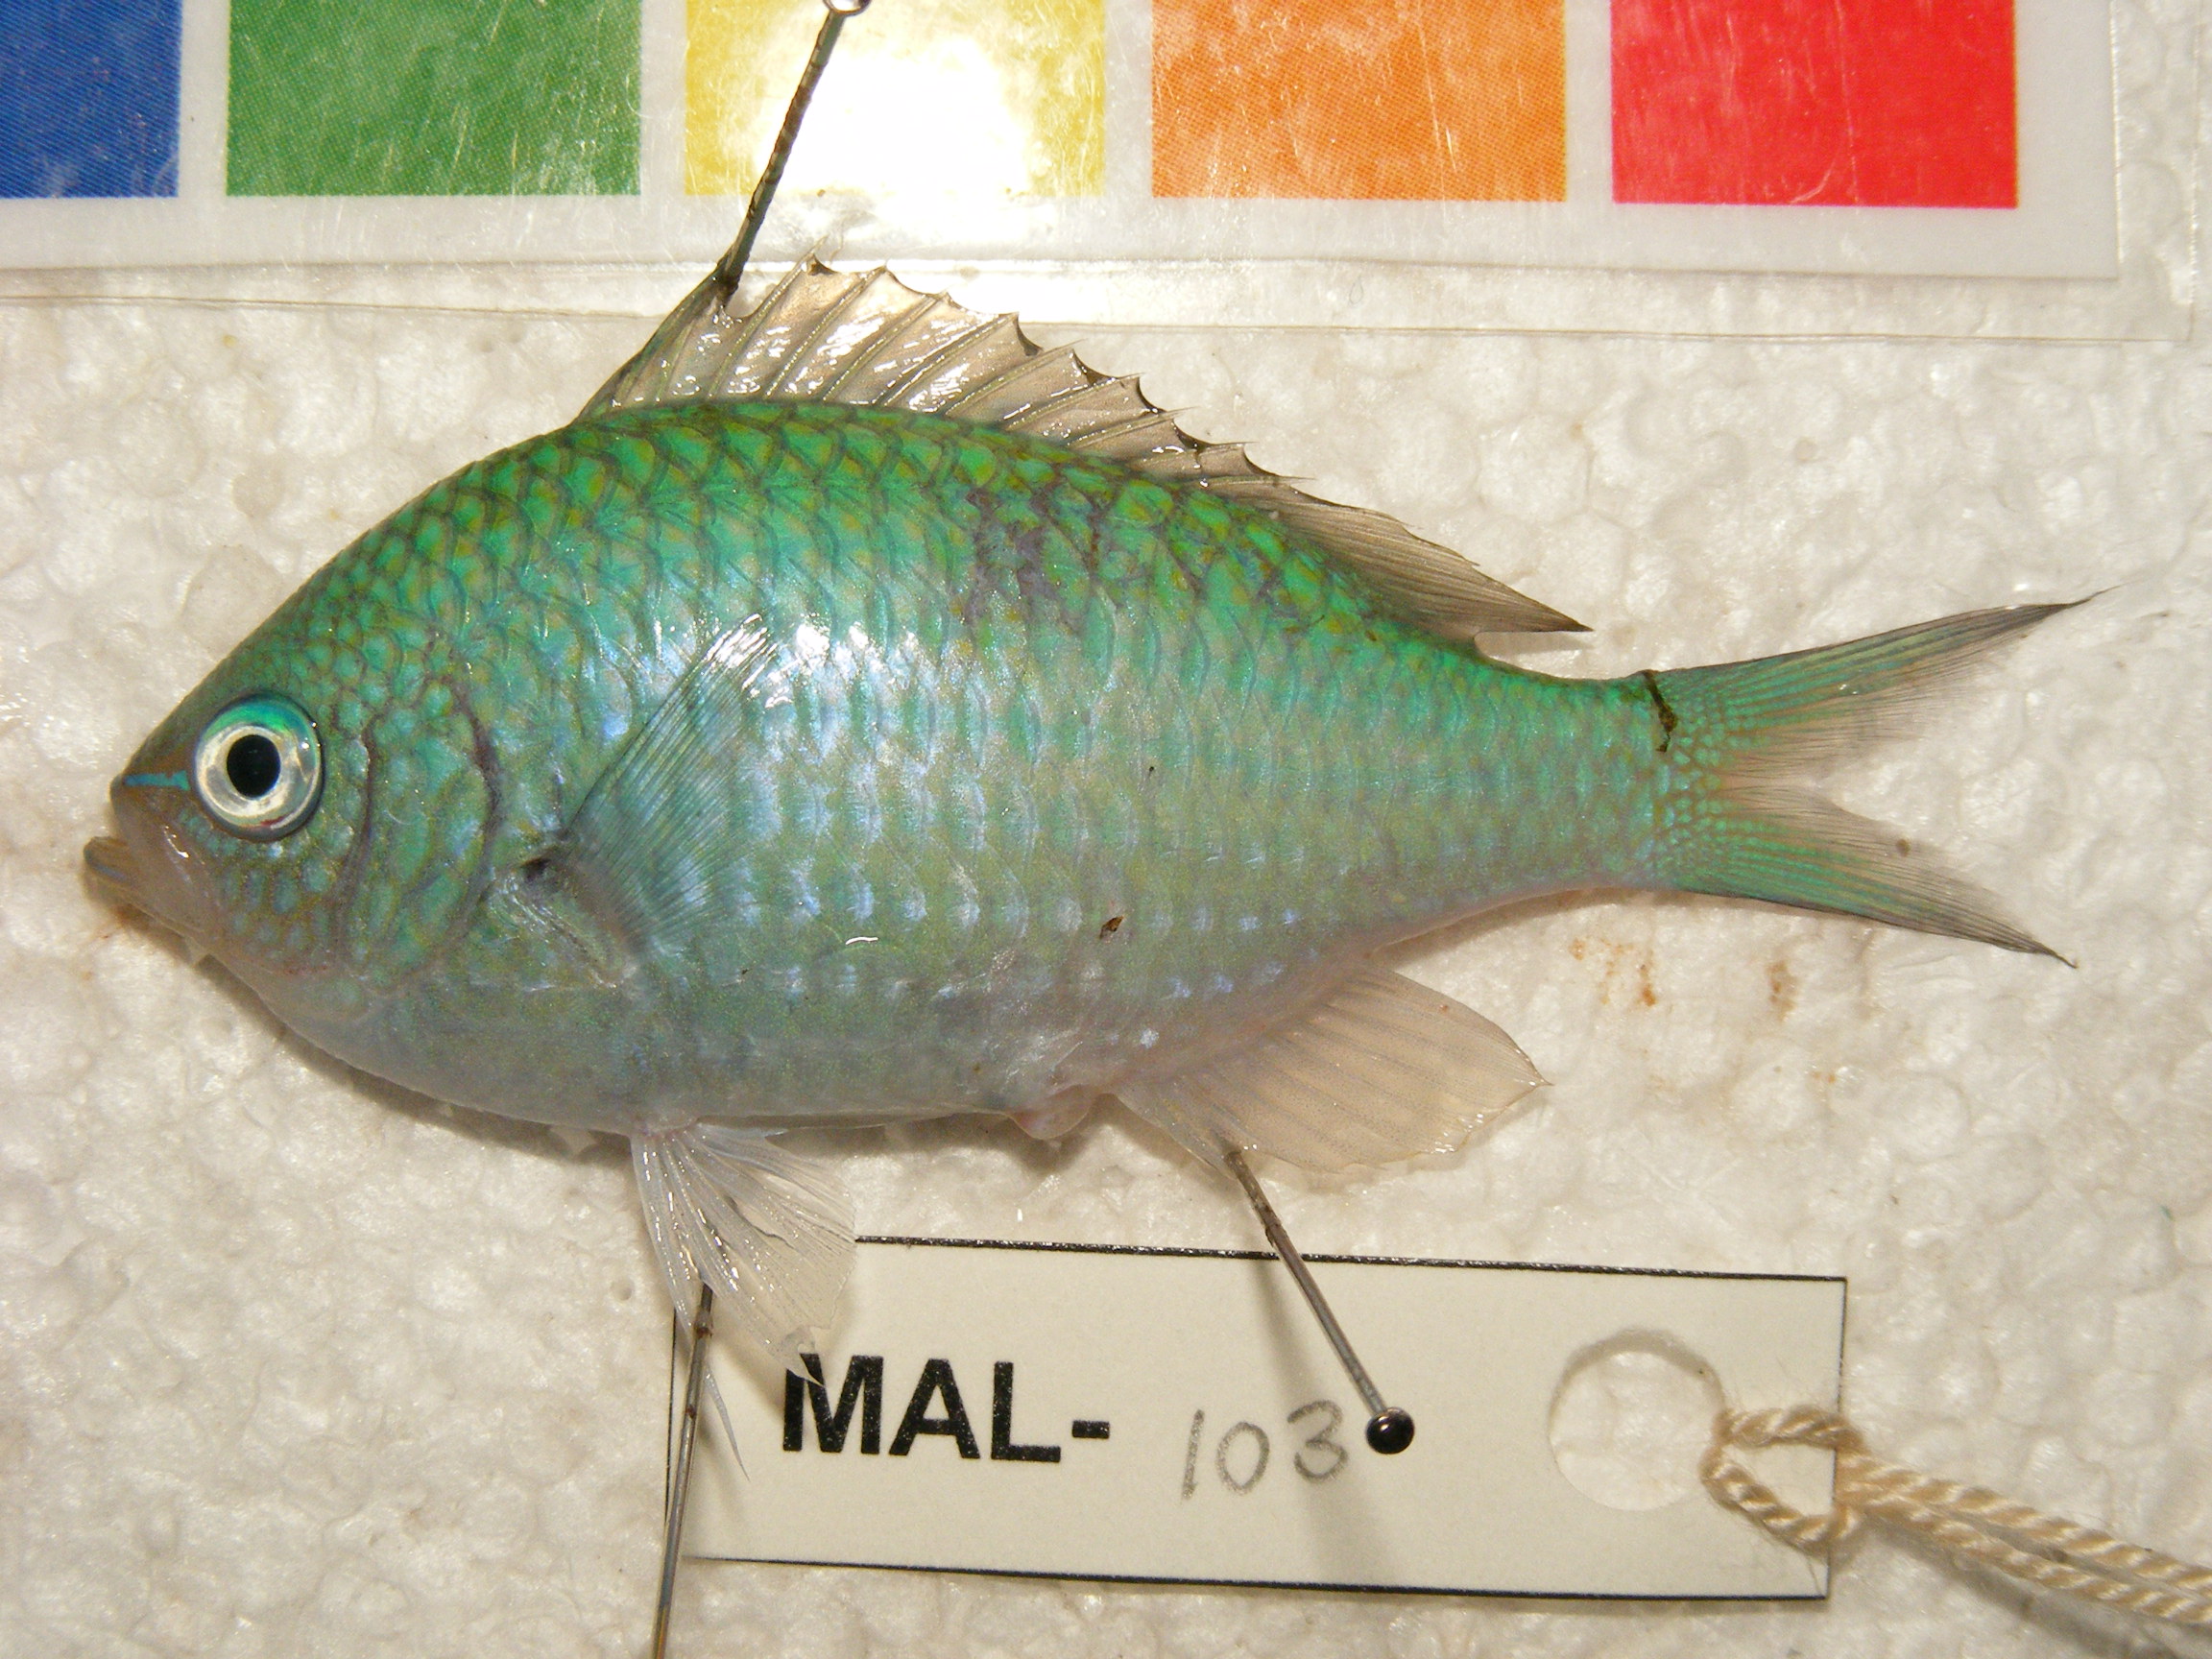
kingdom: Animalia
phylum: Chordata
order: Perciformes
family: Pomacentridae
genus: Chromis
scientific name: Chromis atripectoralis
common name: Black-axil chromis
